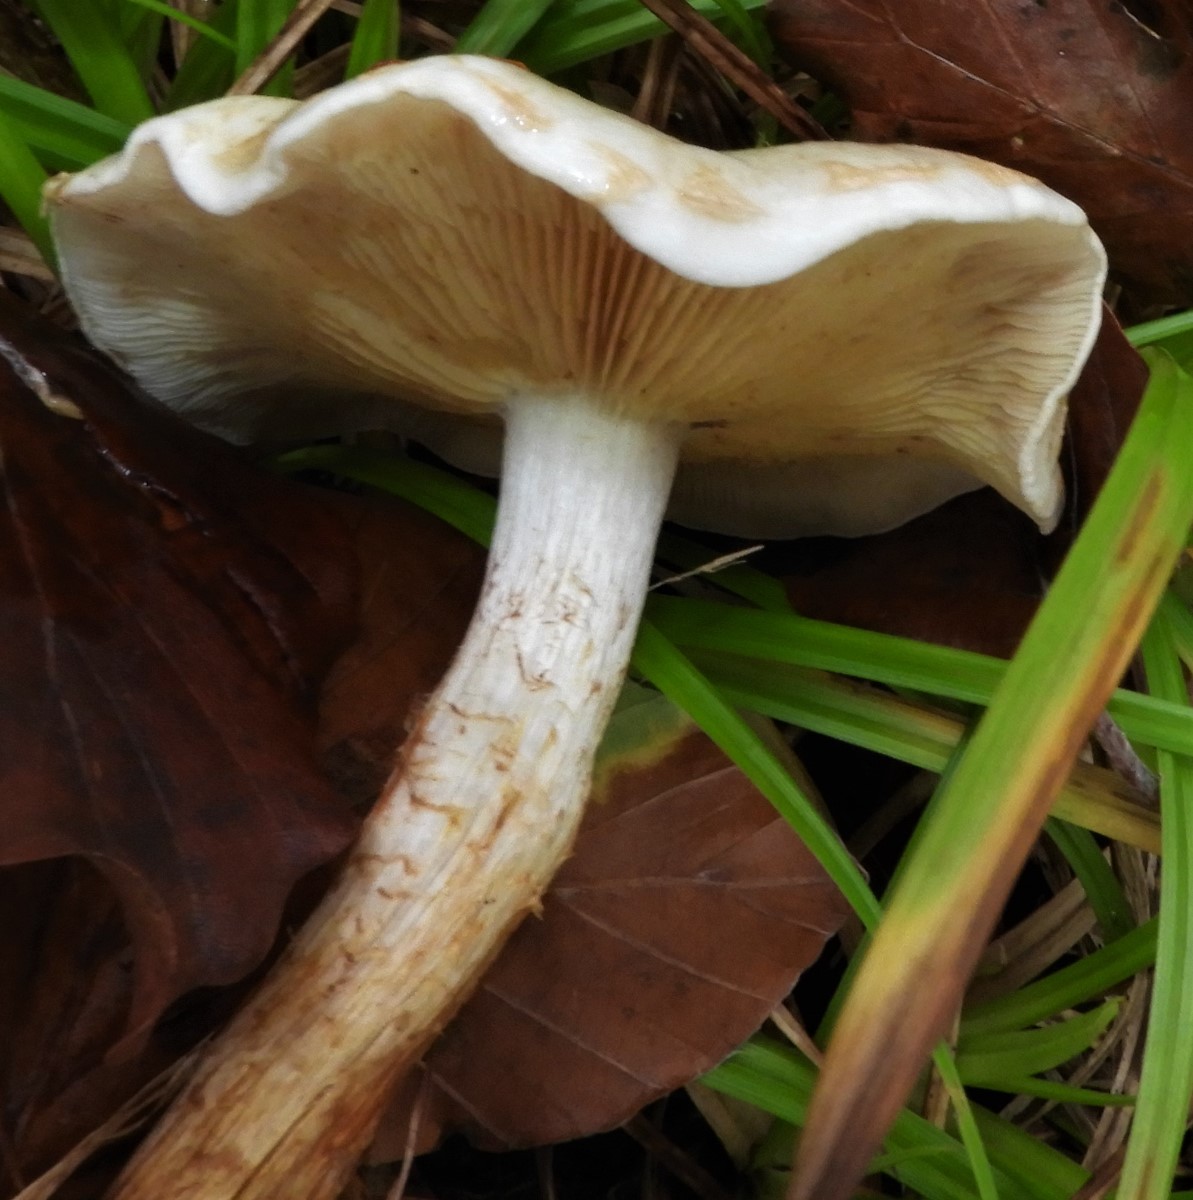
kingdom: Fungi
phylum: Basidiomycota
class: Agaricomycetes
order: Agaricales
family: Strophariaceae
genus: Pholiota
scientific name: Pholiota gummosa
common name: grøngul skælhat
